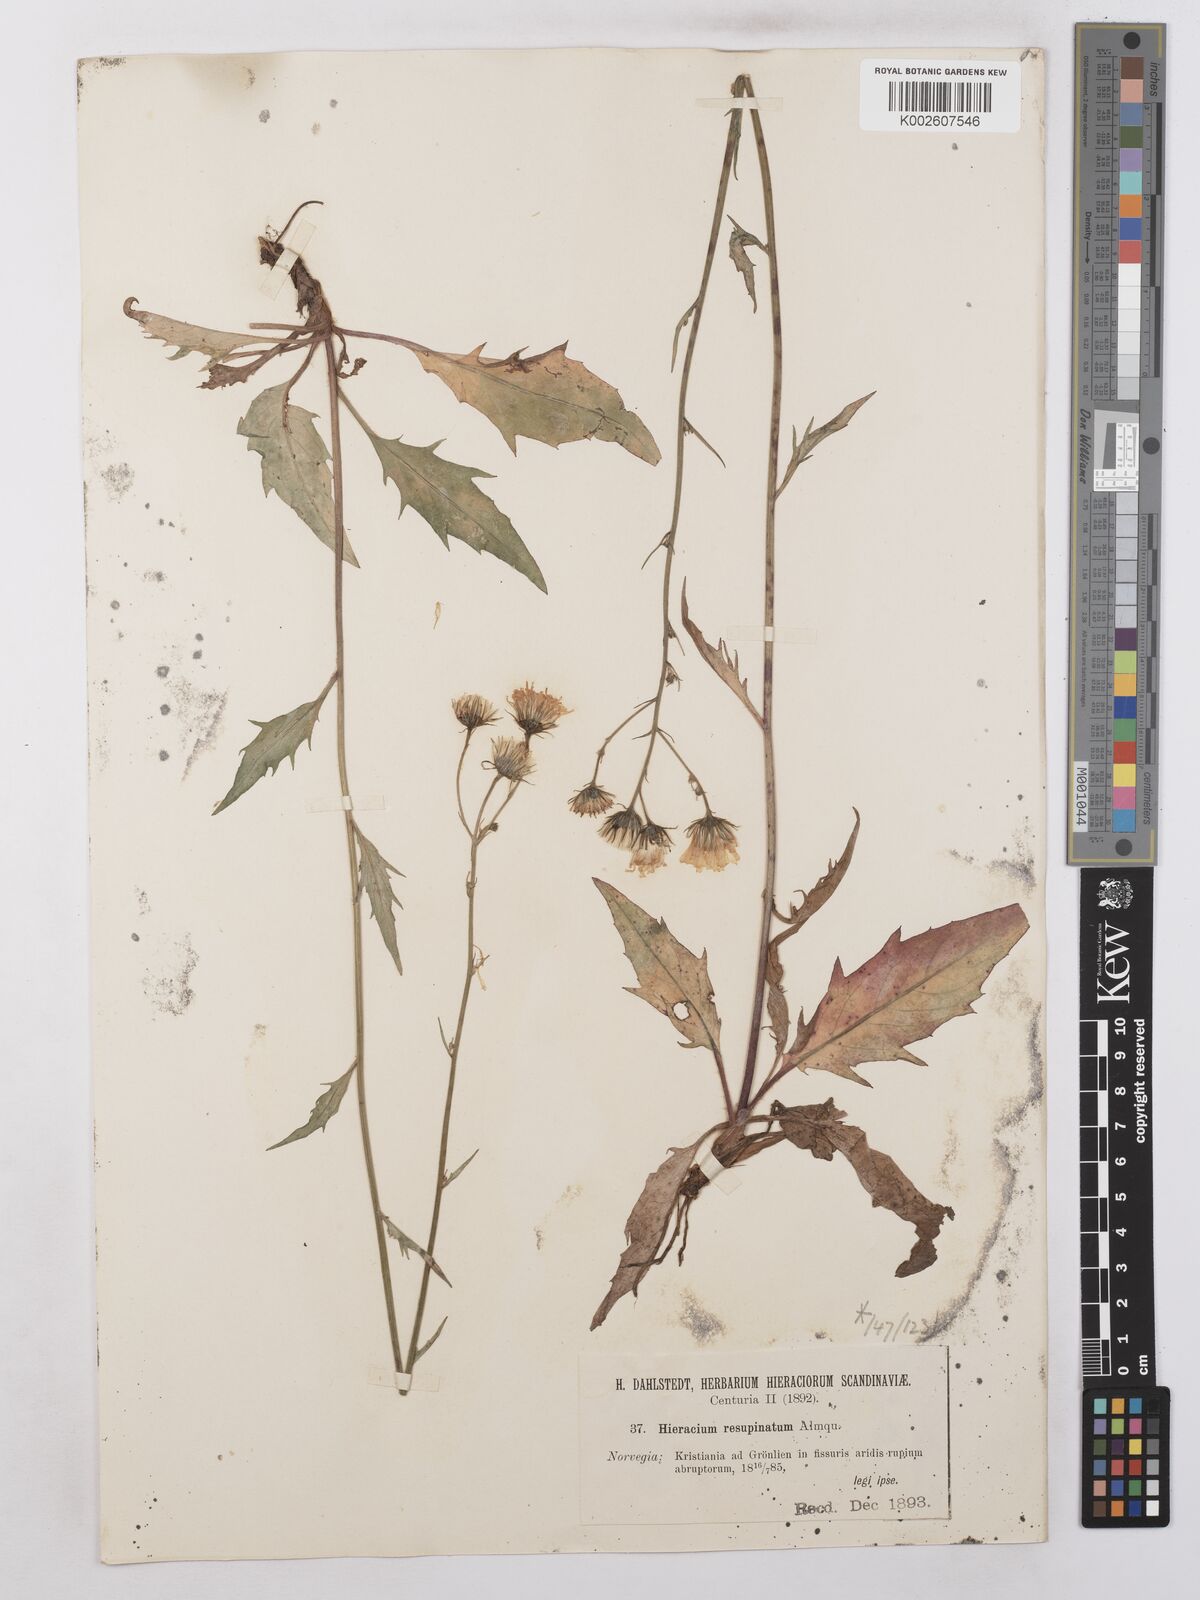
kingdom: Plantae
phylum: Tracheophyta
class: Magnoliopsida
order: Asterales
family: Asteraceae
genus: Hieracium
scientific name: Hieracium caesium
